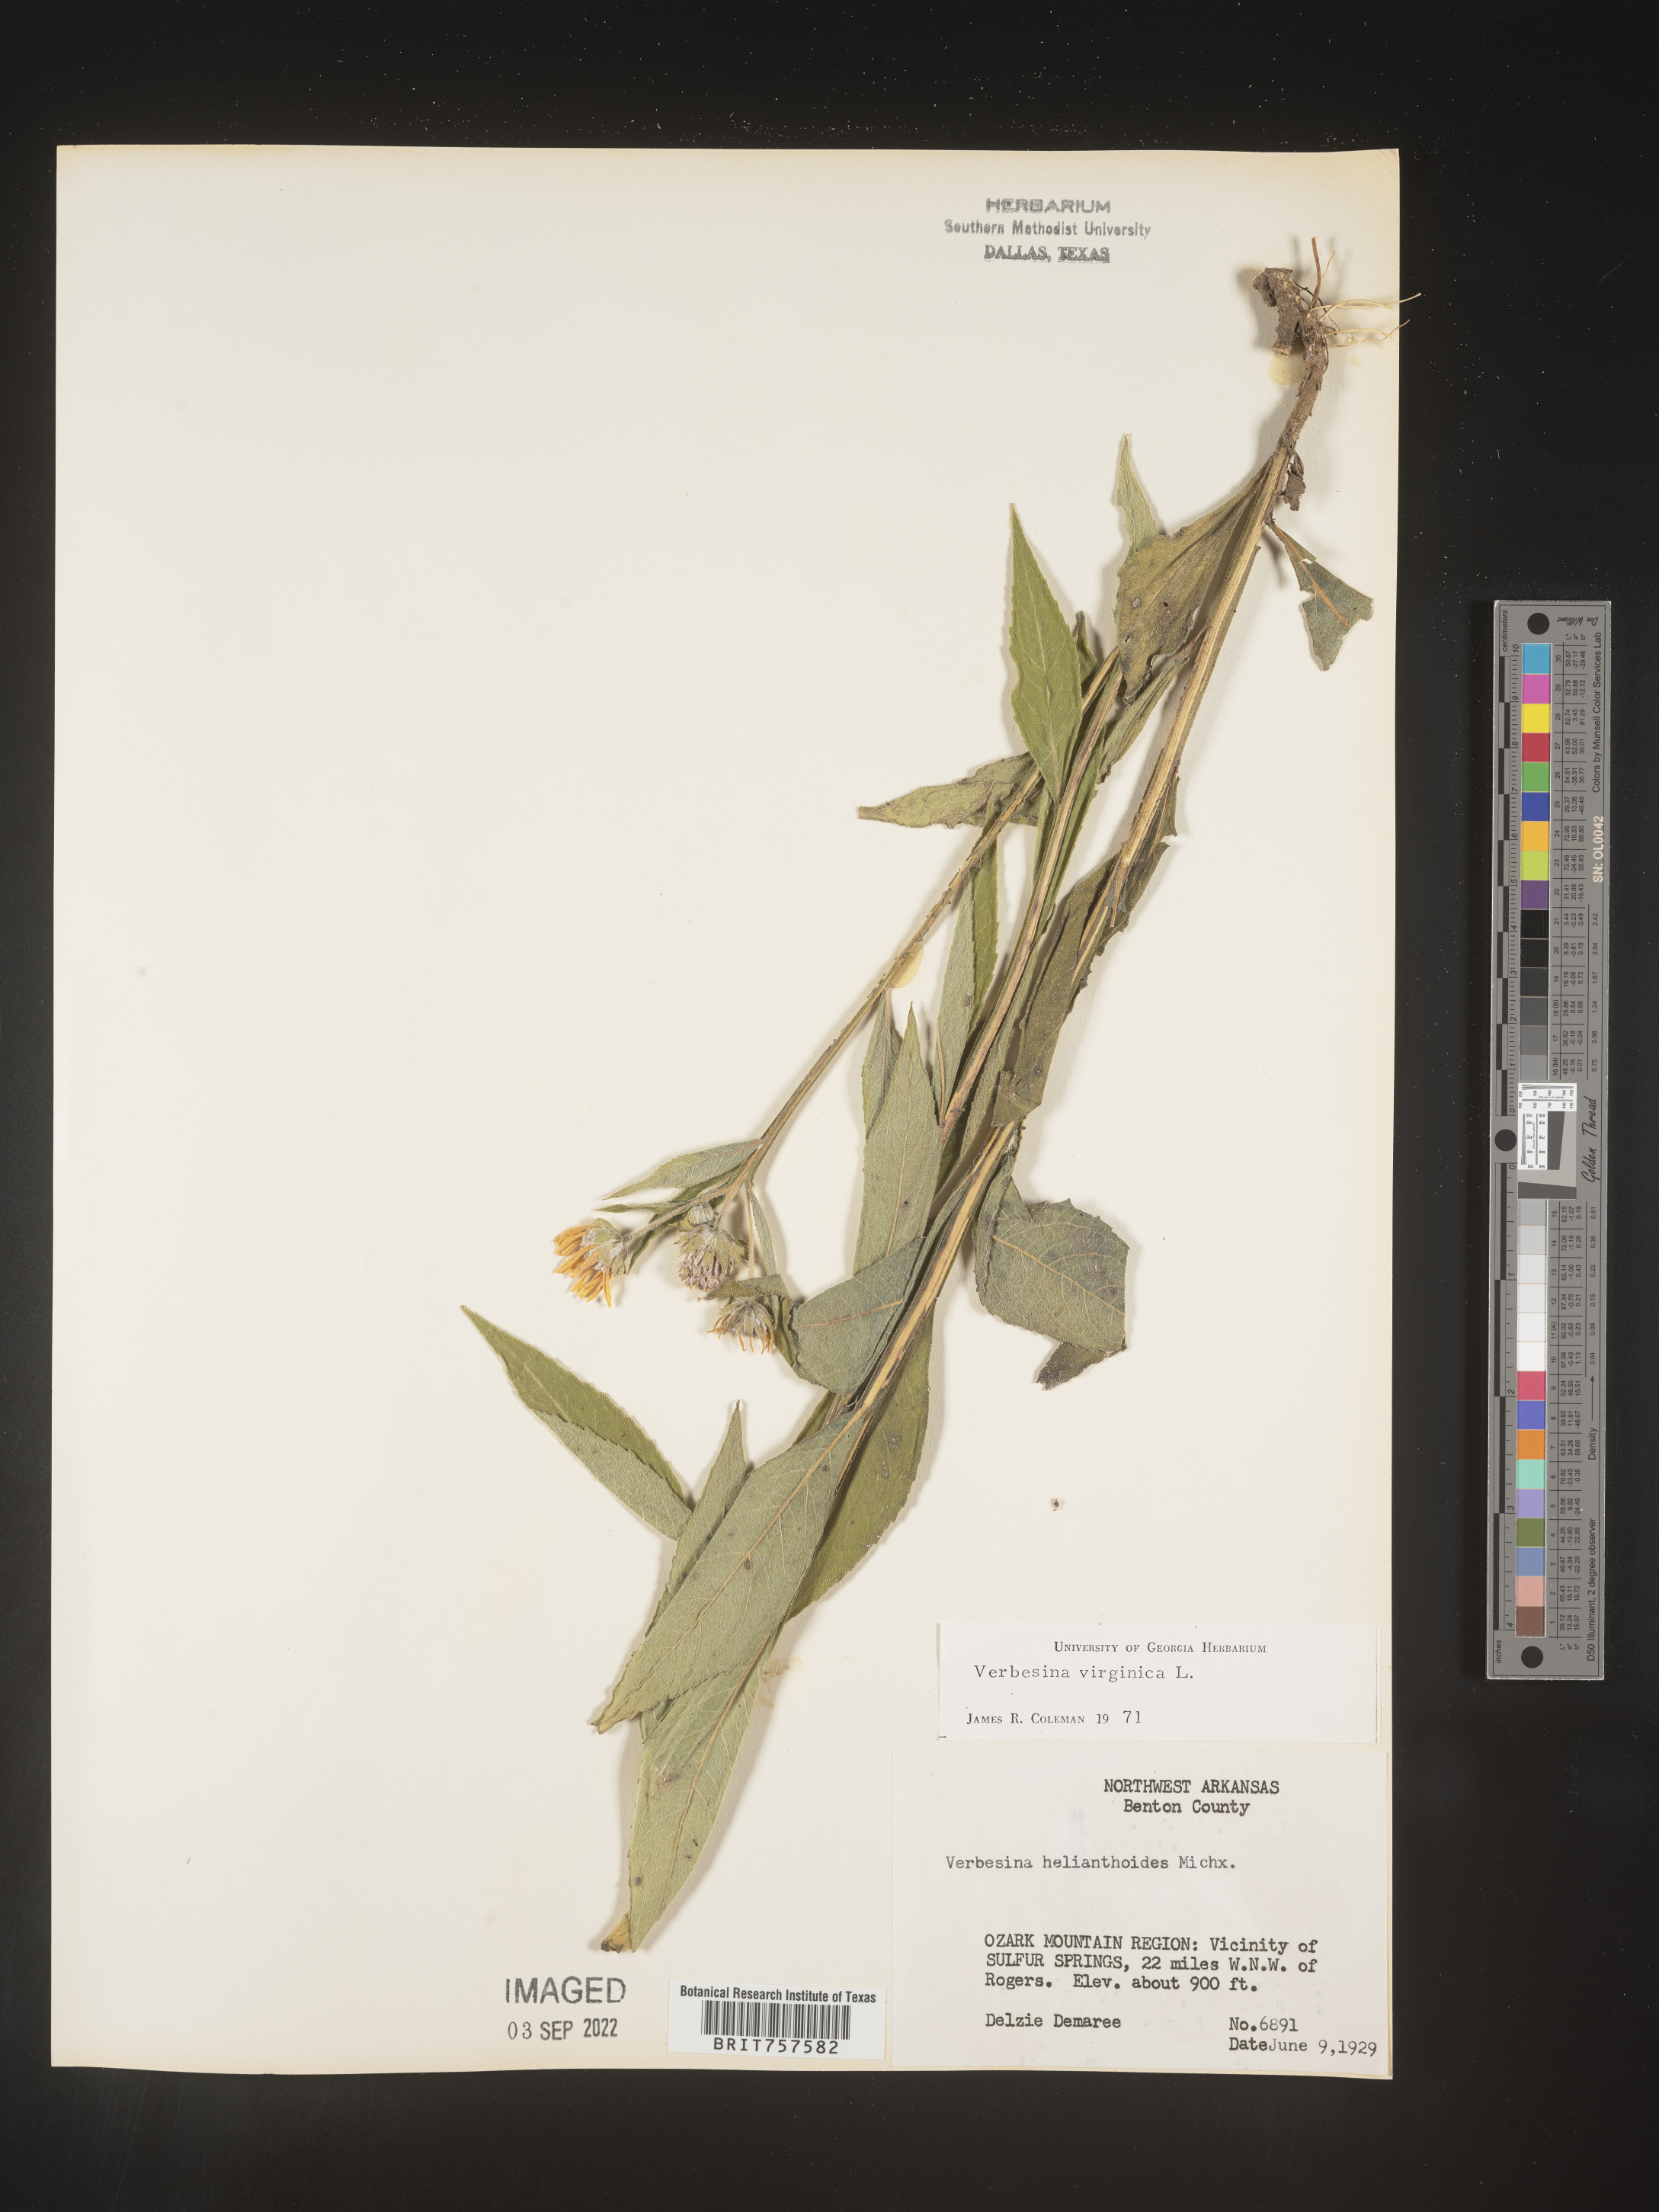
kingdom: Plantae
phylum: Tracheophyta
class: Magnoliopsida
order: Asterales
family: Asteraceae
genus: Verbesina
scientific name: Verbesina helianthoides
